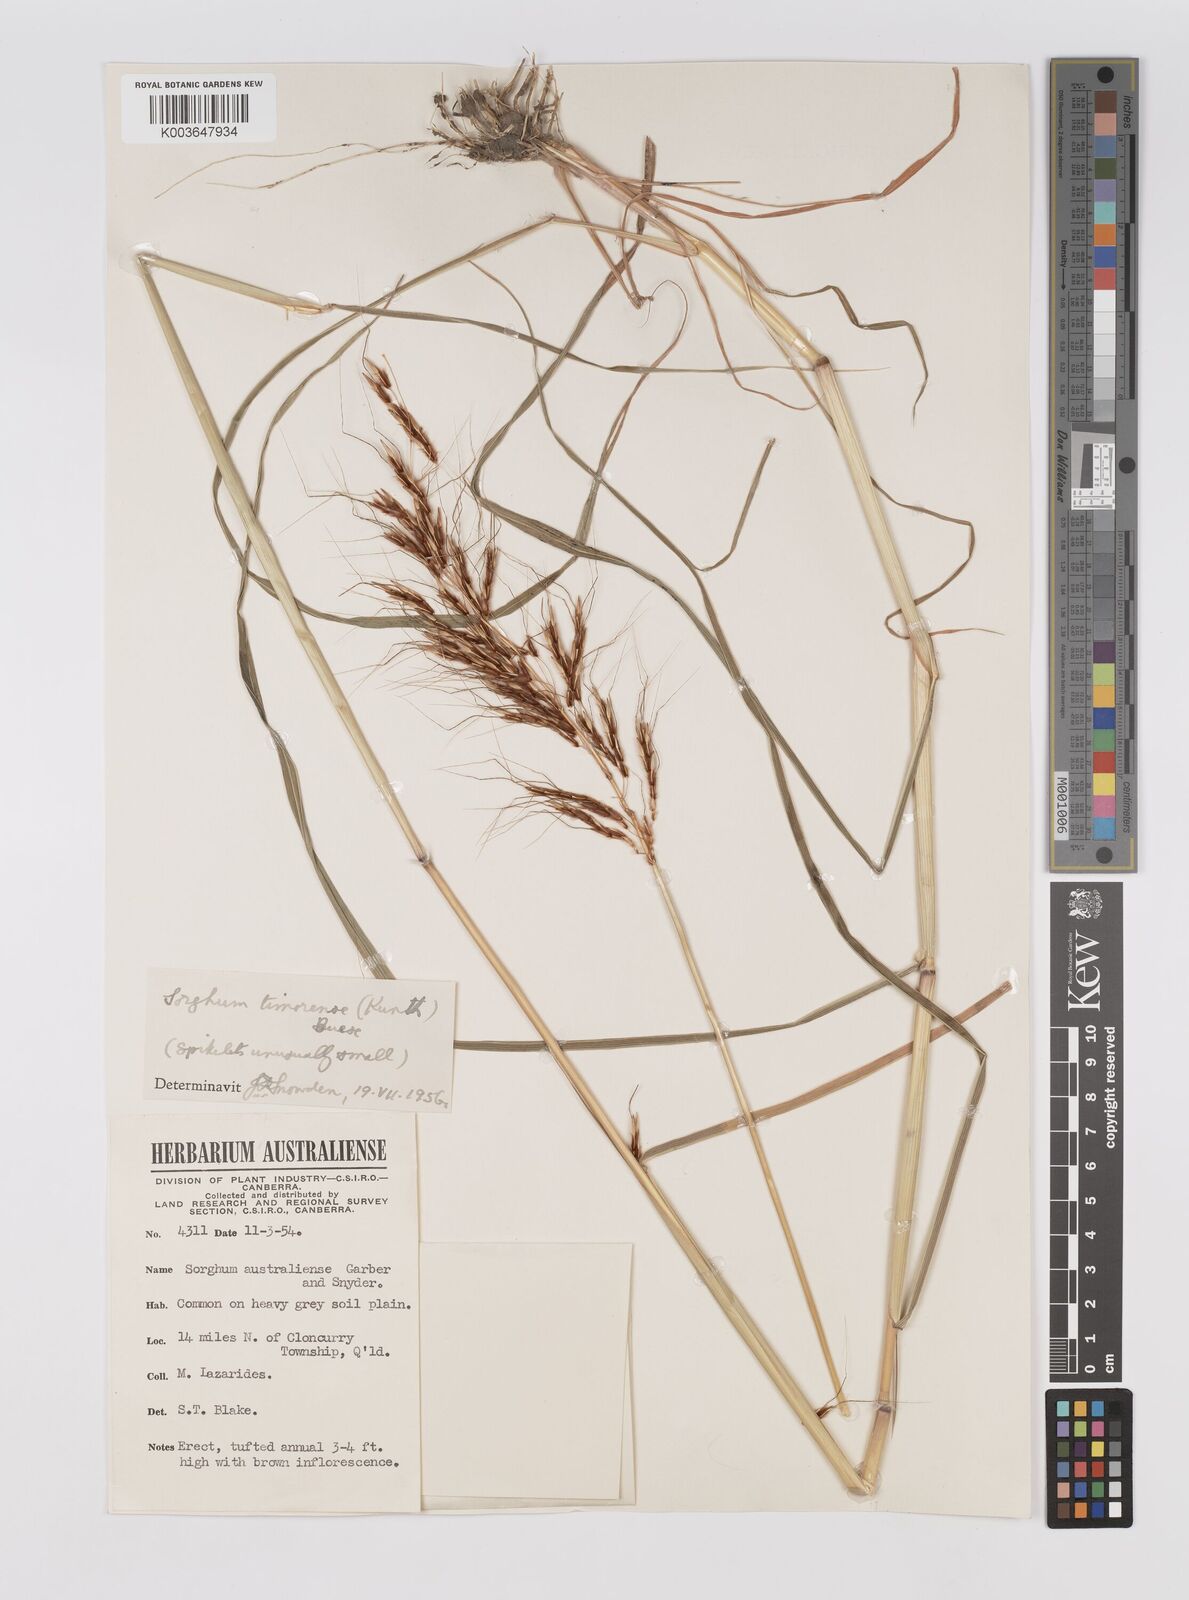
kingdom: Plantae
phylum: Tracheophyta
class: Liliopsida
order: Poales
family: Poaceae
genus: Sarga
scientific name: Sarga timorensis
